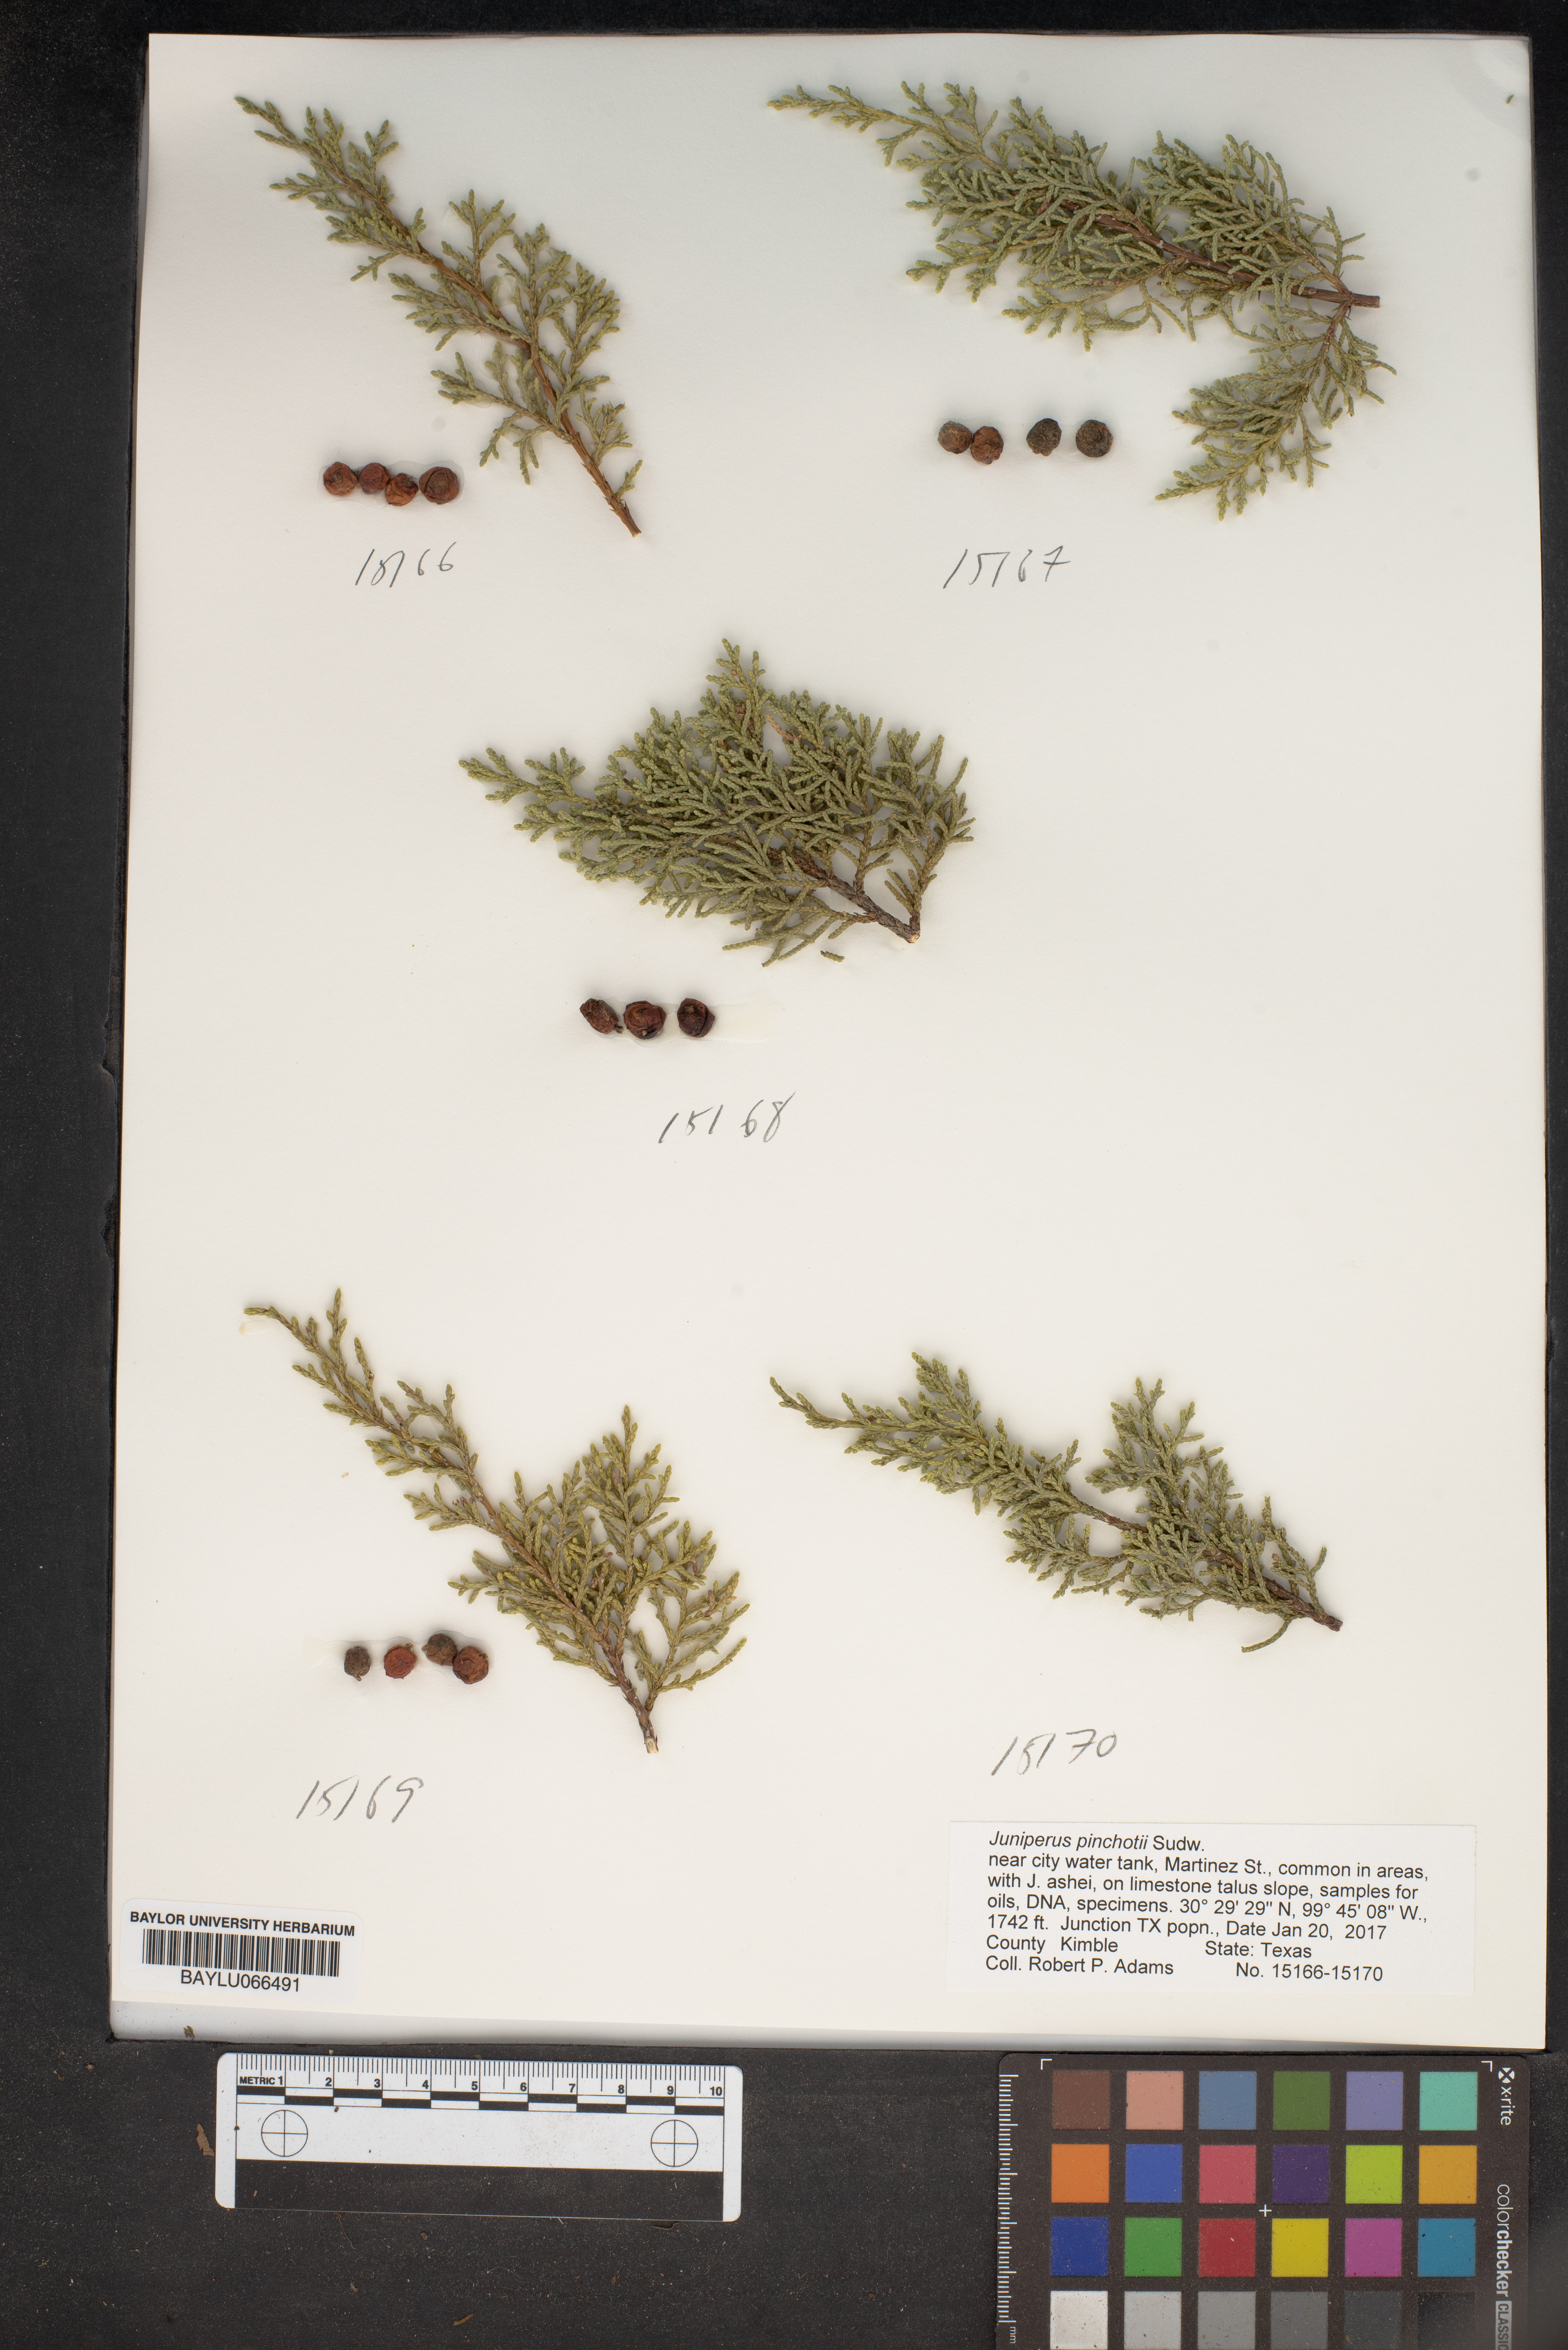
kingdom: Plantae
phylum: Tracheophyta
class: Pinopsida
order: Pinales
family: Cupressaceae
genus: Juniperus
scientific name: Juniperus pinchotii
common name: Pinchot juniper
